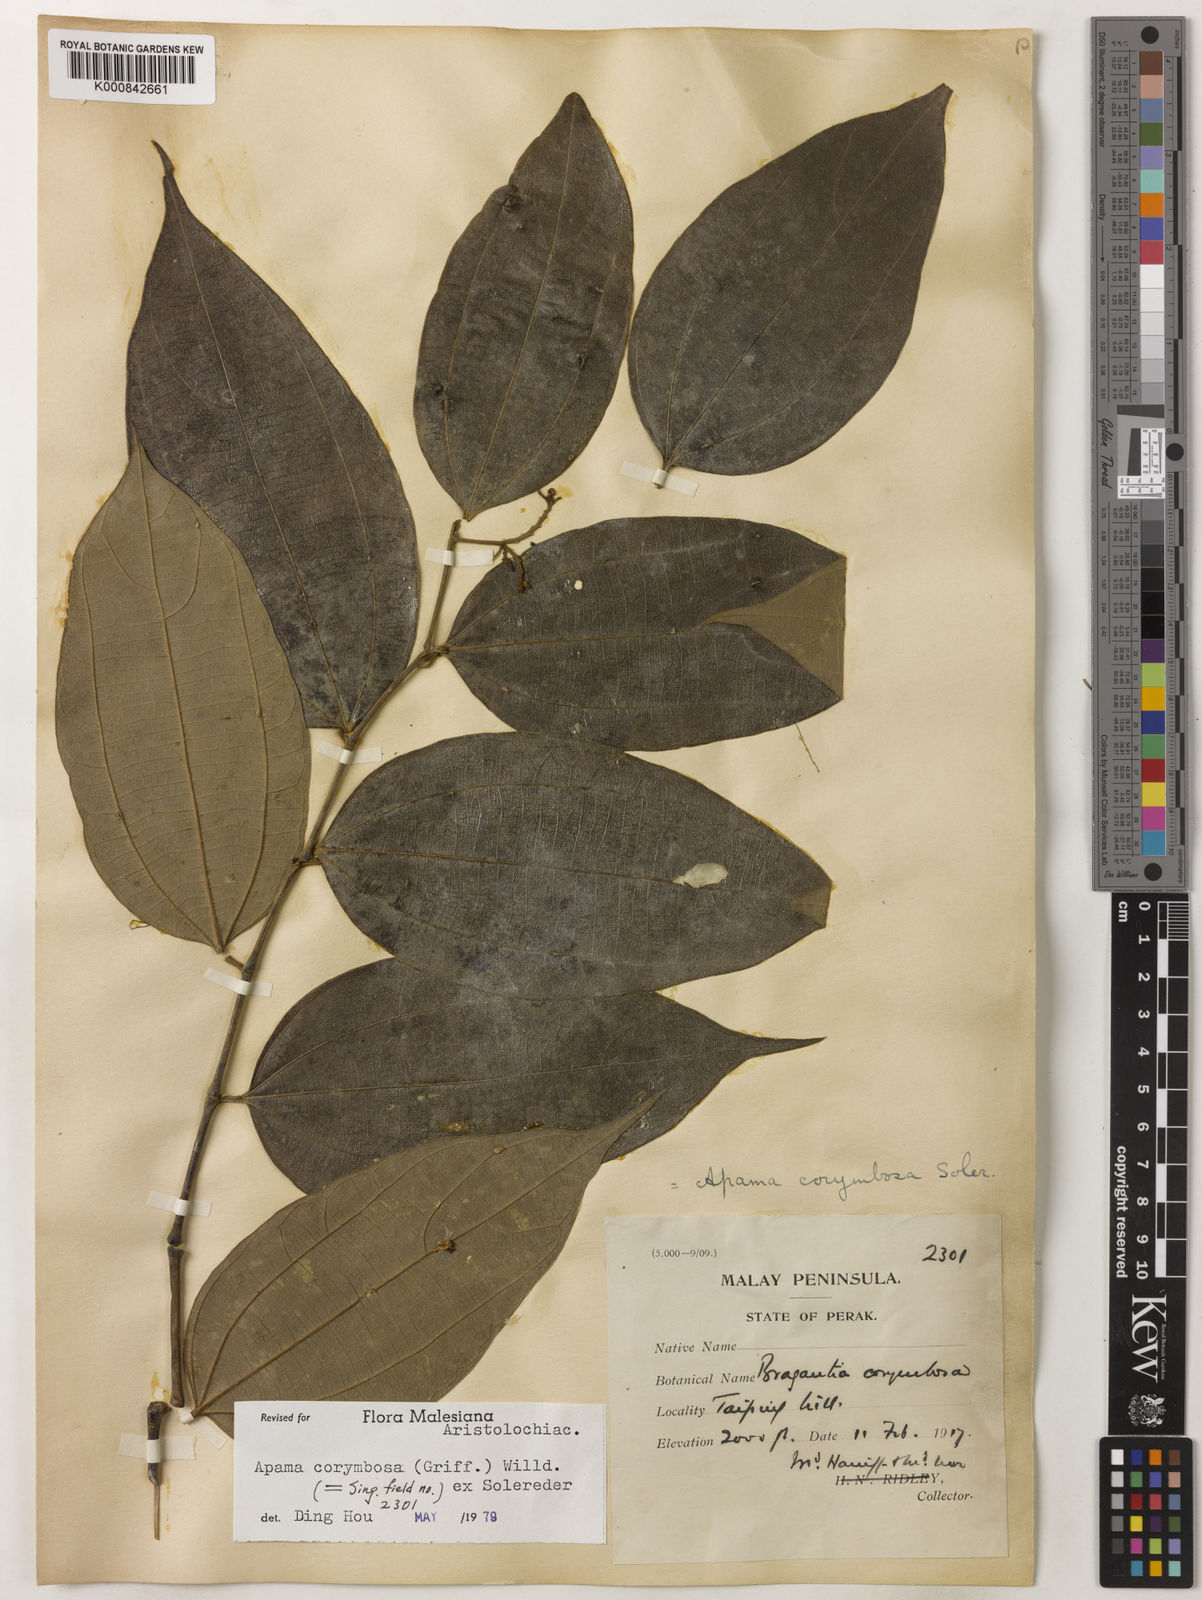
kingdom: Plantae
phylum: Tracheophyta
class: Magnoliopsida
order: Piperales
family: Aristolochiaceae
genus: Thottea
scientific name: Thottea piperiformis
